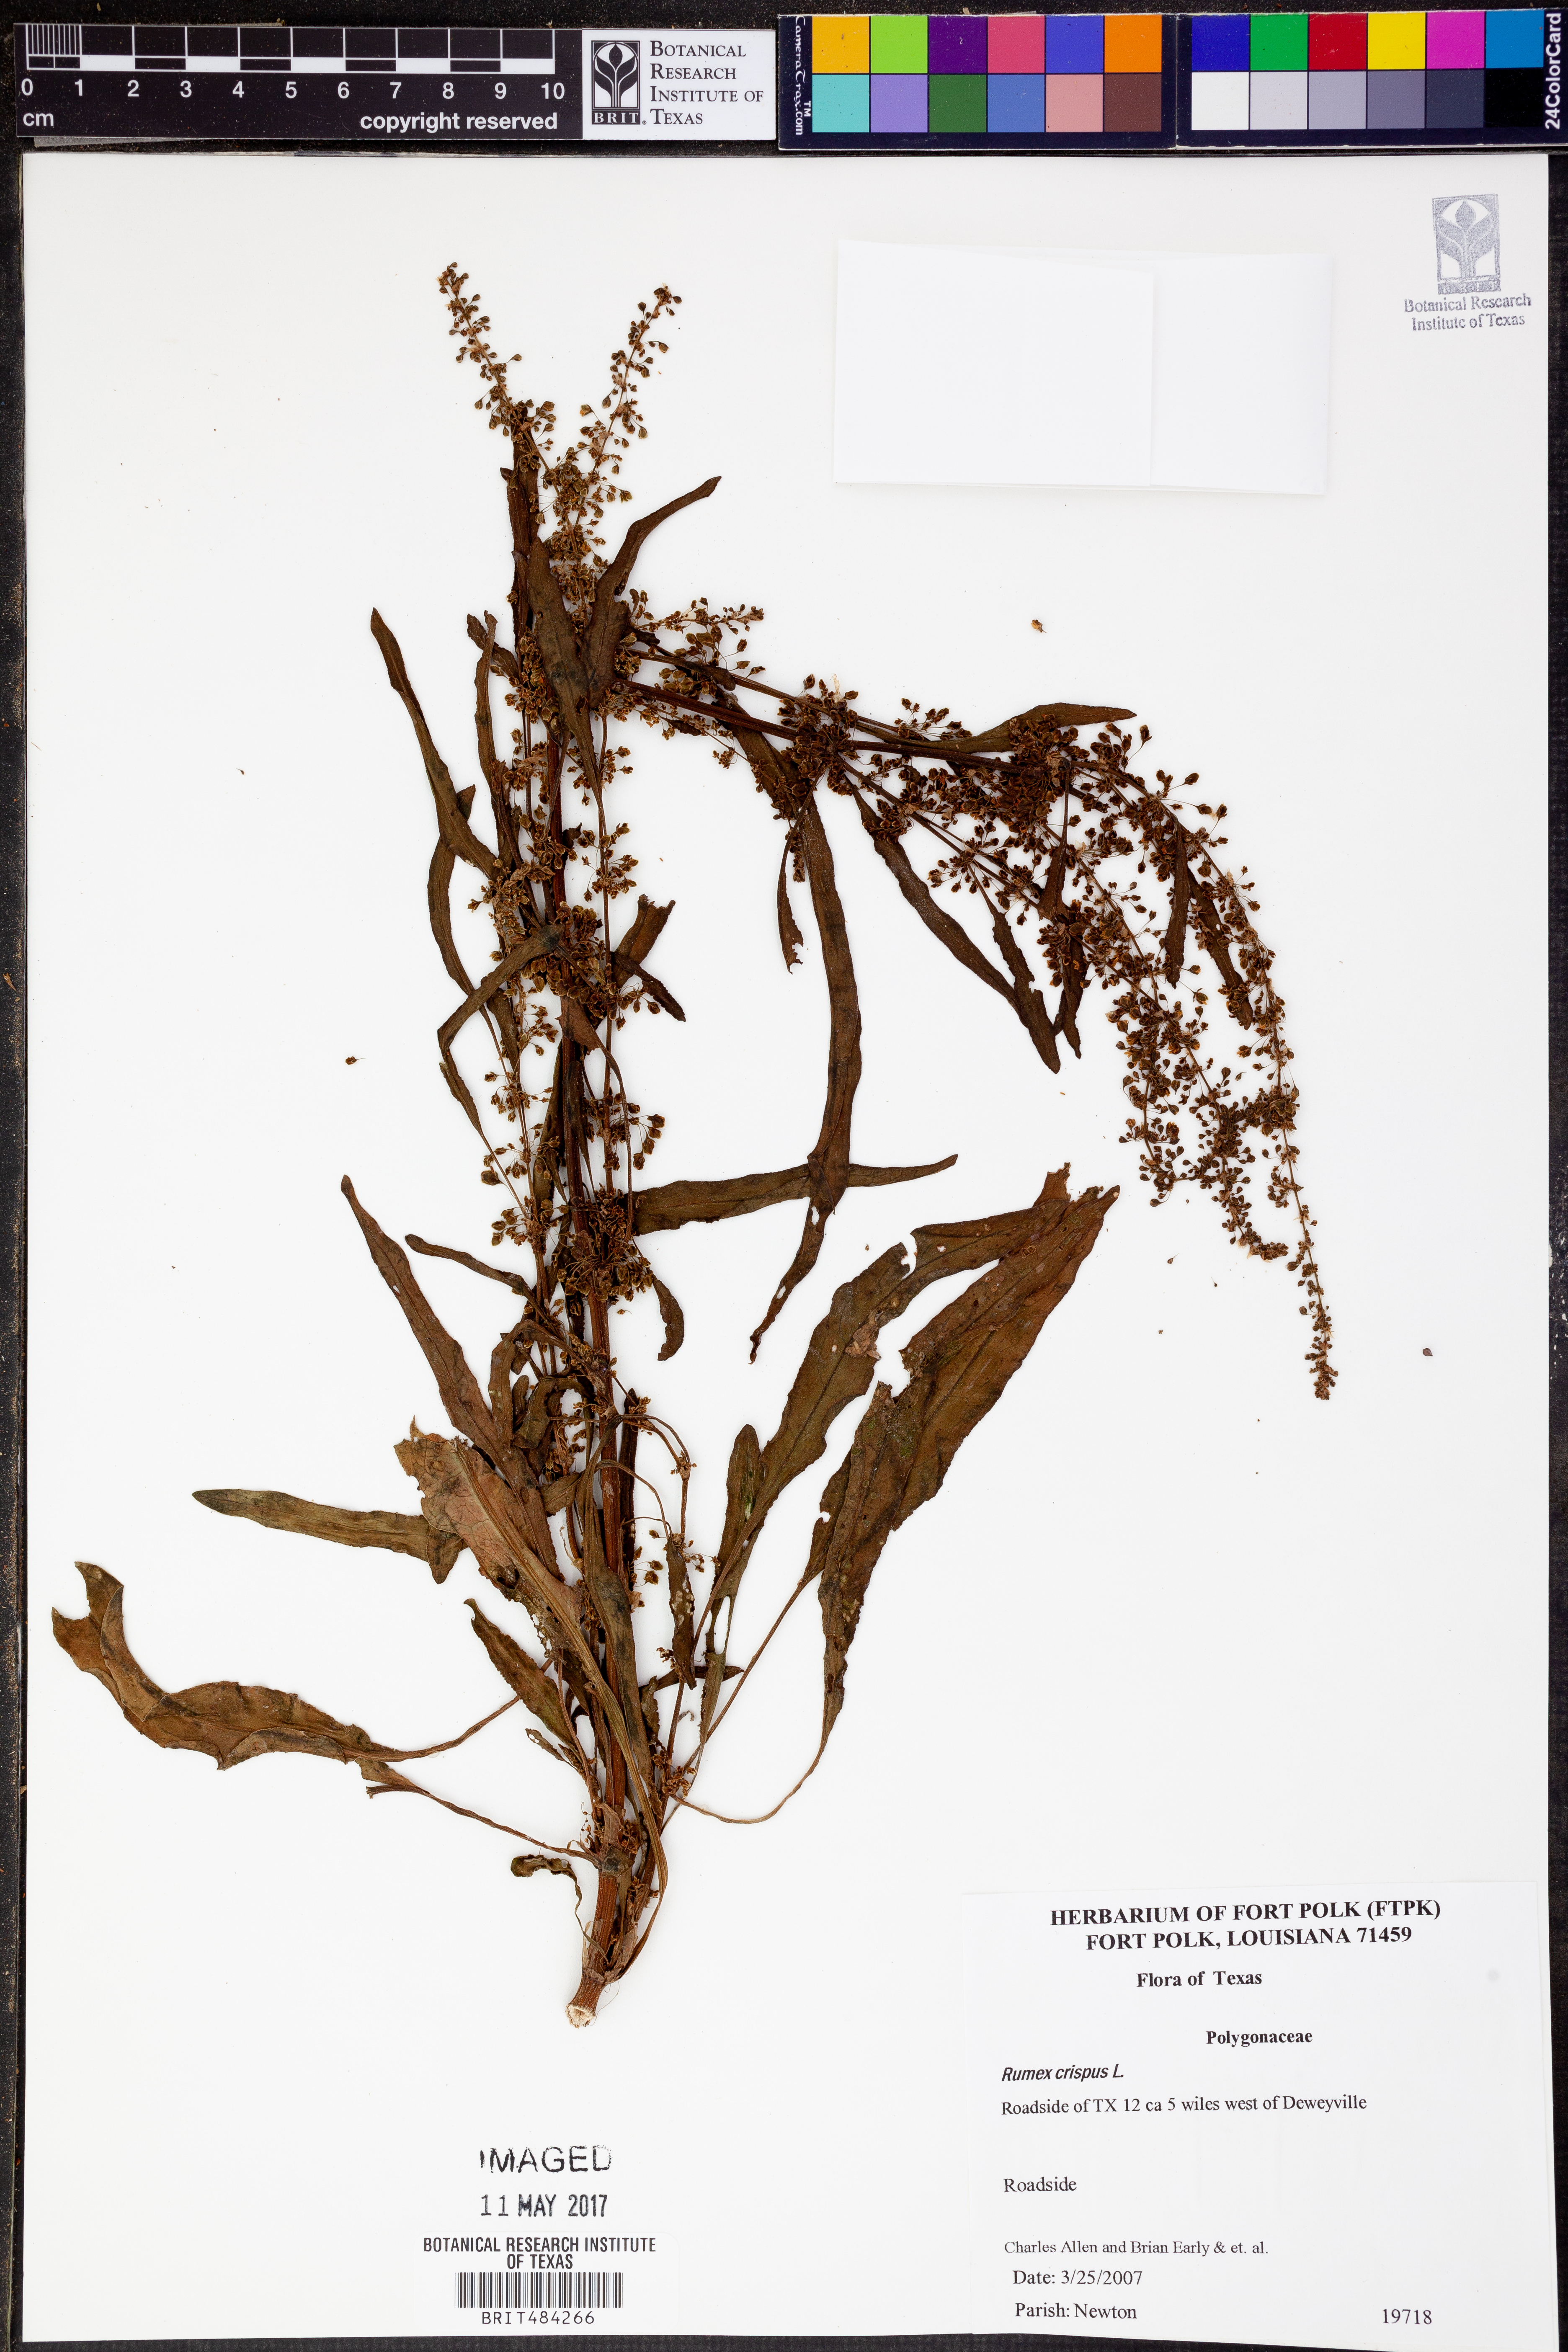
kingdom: Plantae
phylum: Tracheophyta
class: Magnoliopsida
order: Caryophyllales
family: Polygonaceae
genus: Rumex
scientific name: Rumex crispus
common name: Curled dock
